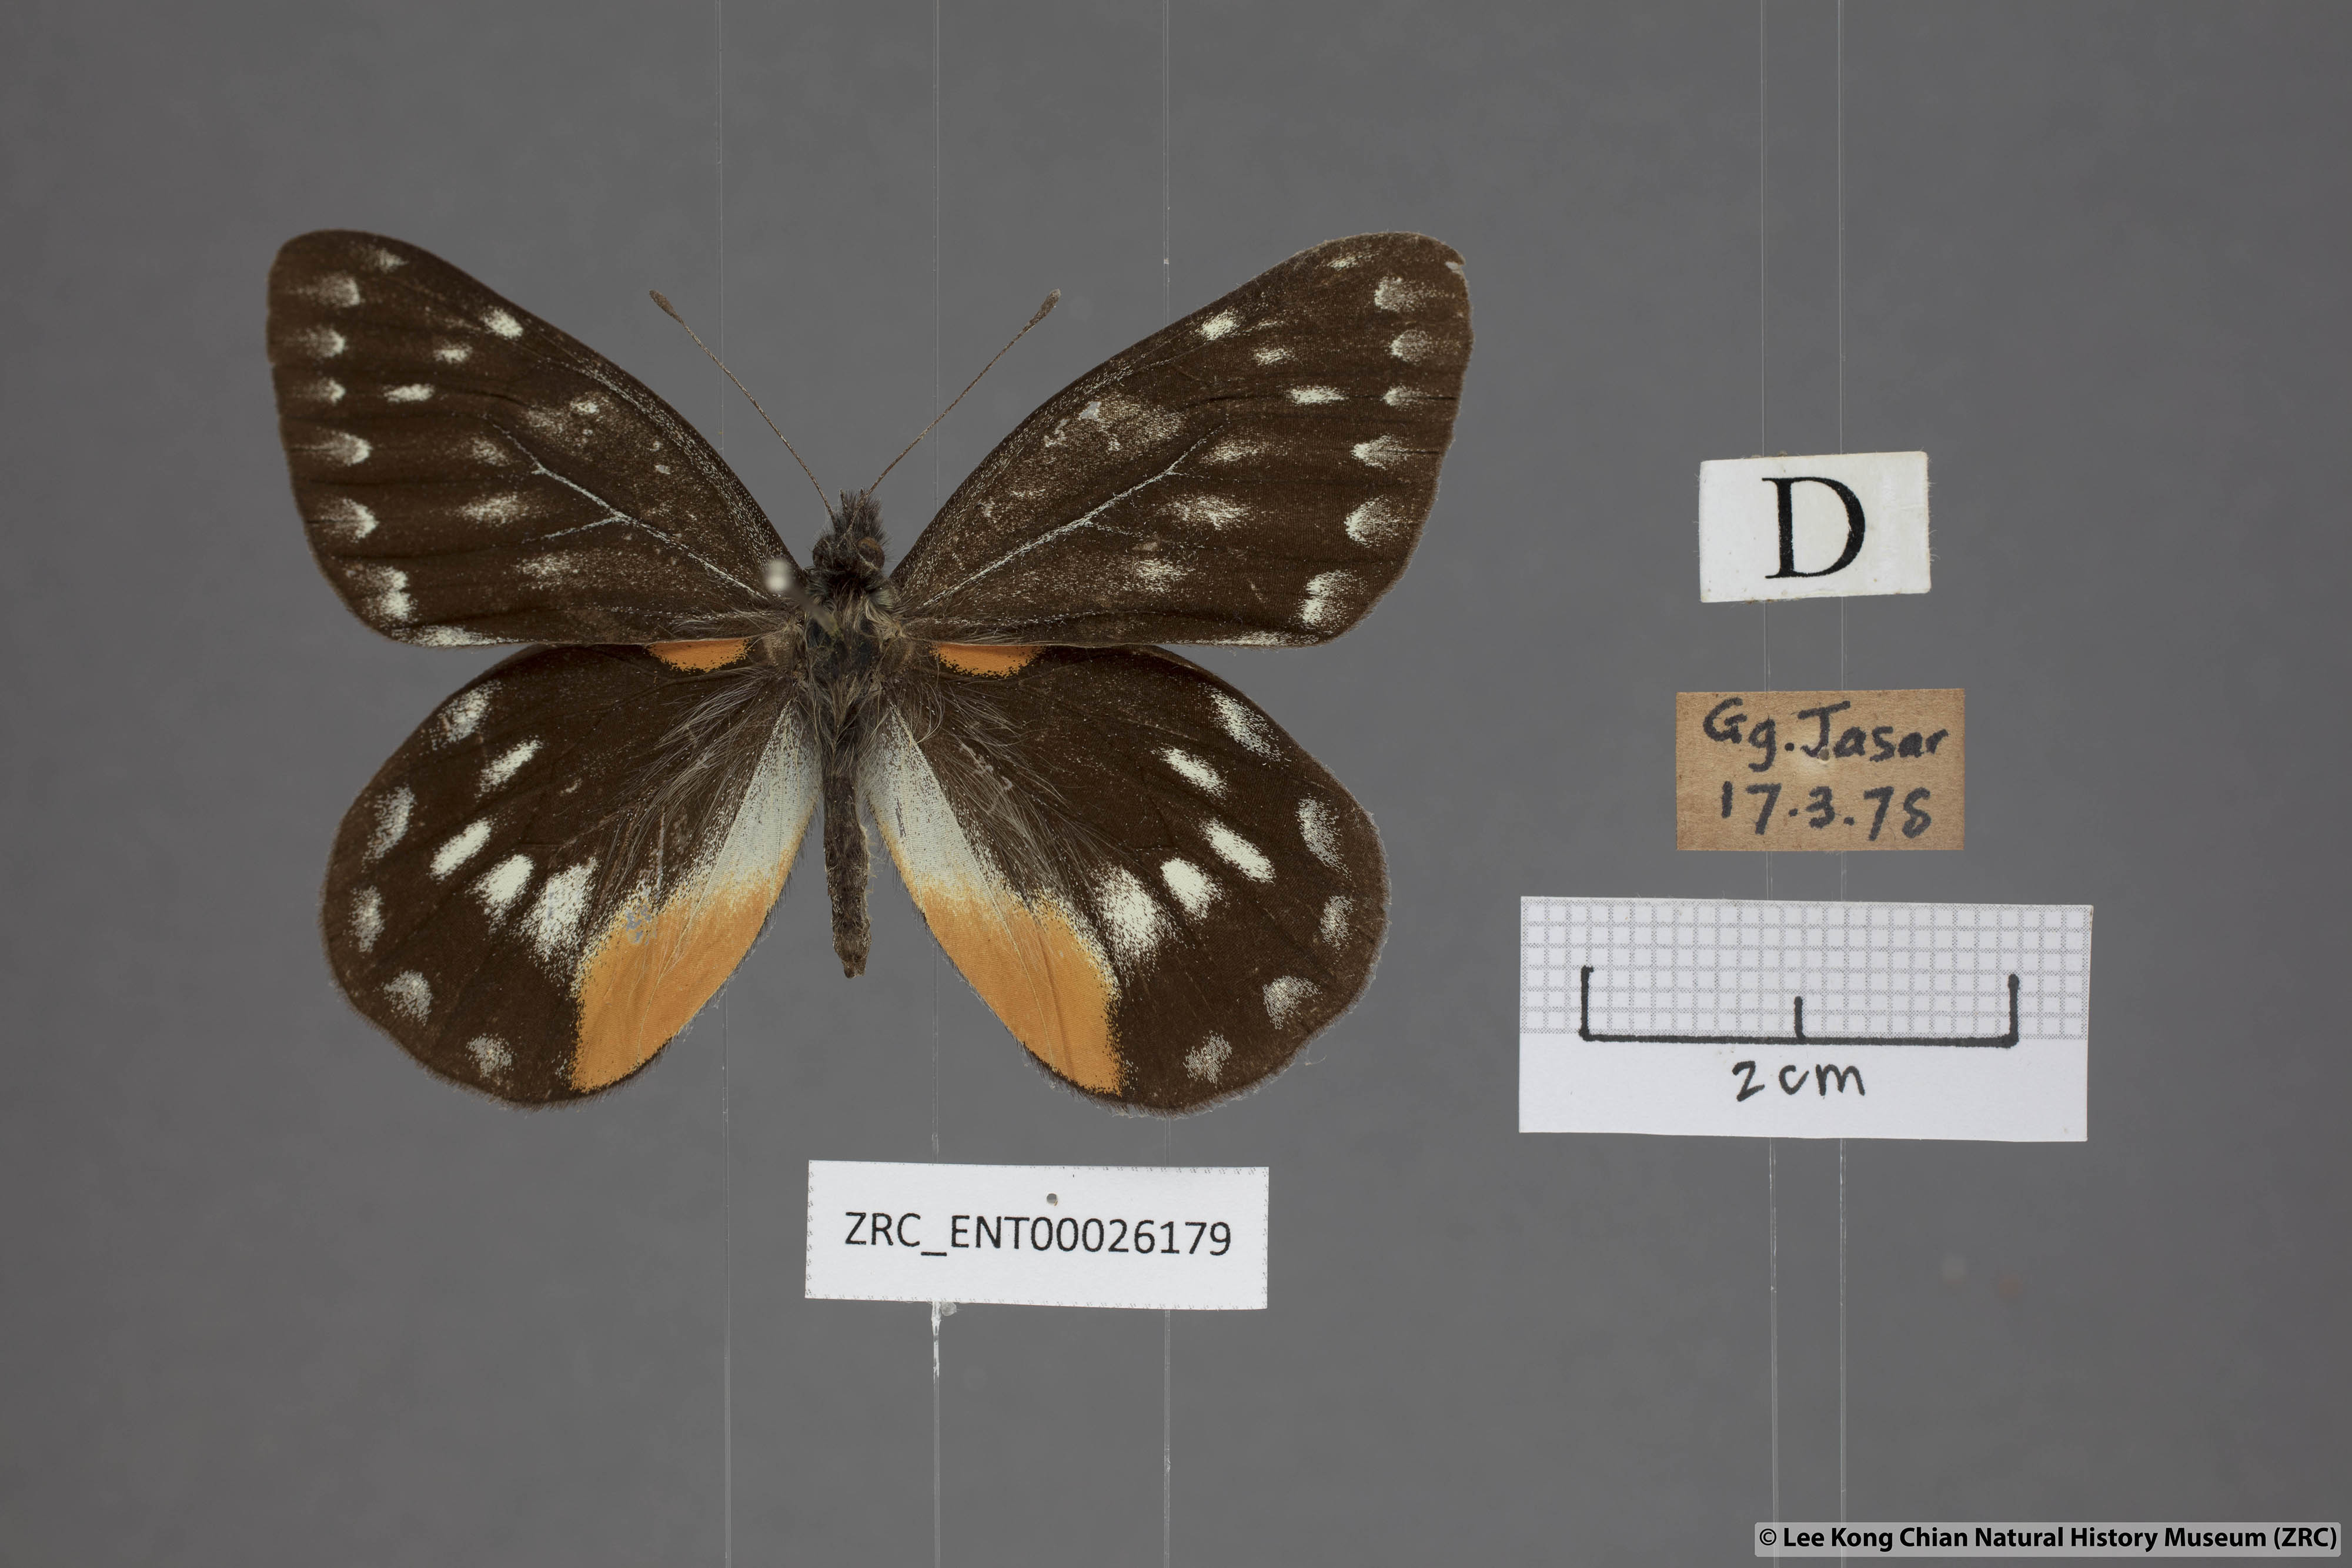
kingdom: Animalia
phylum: Arthropoda
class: Insecta
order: Lepidoptera
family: Pieridae
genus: Delias
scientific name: Delias belladonna
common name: Hill jezebel
